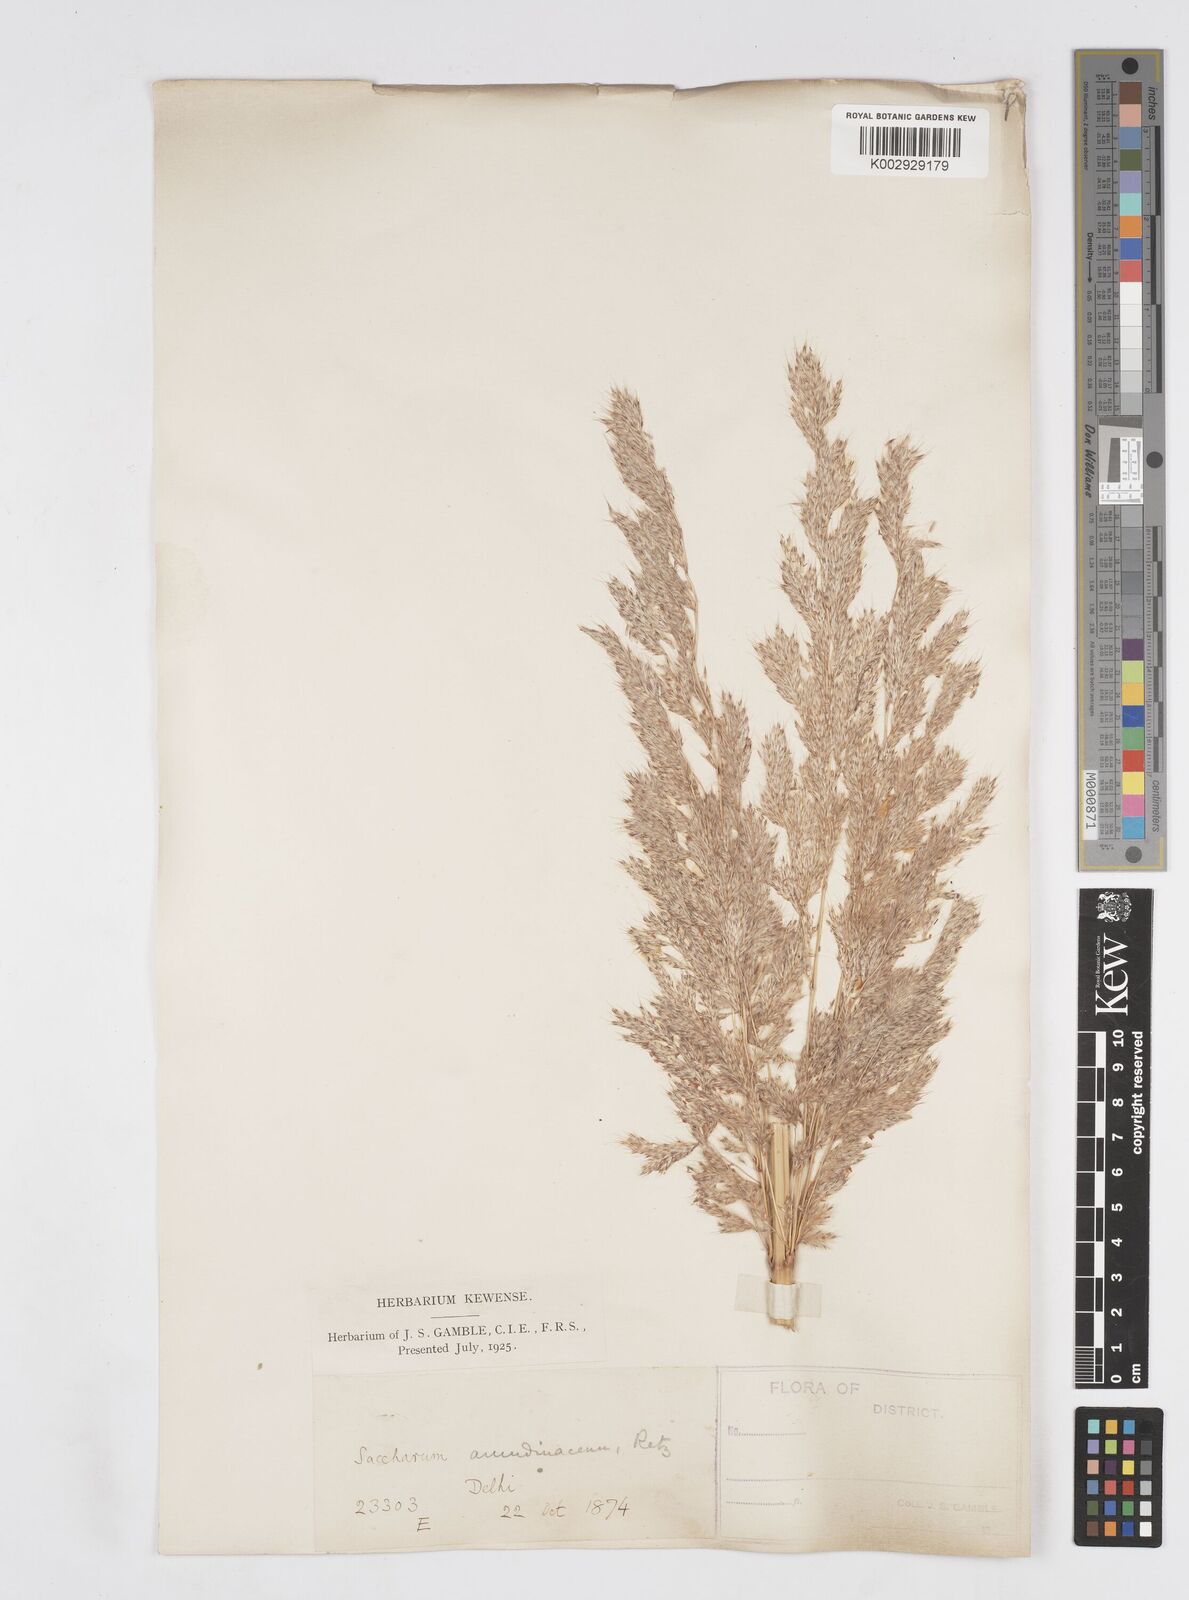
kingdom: Plantae
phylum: Tracheophyta
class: Liliopsida
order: Poales
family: Poaceae
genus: Tripidium
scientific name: Tripidium arundinaceum
